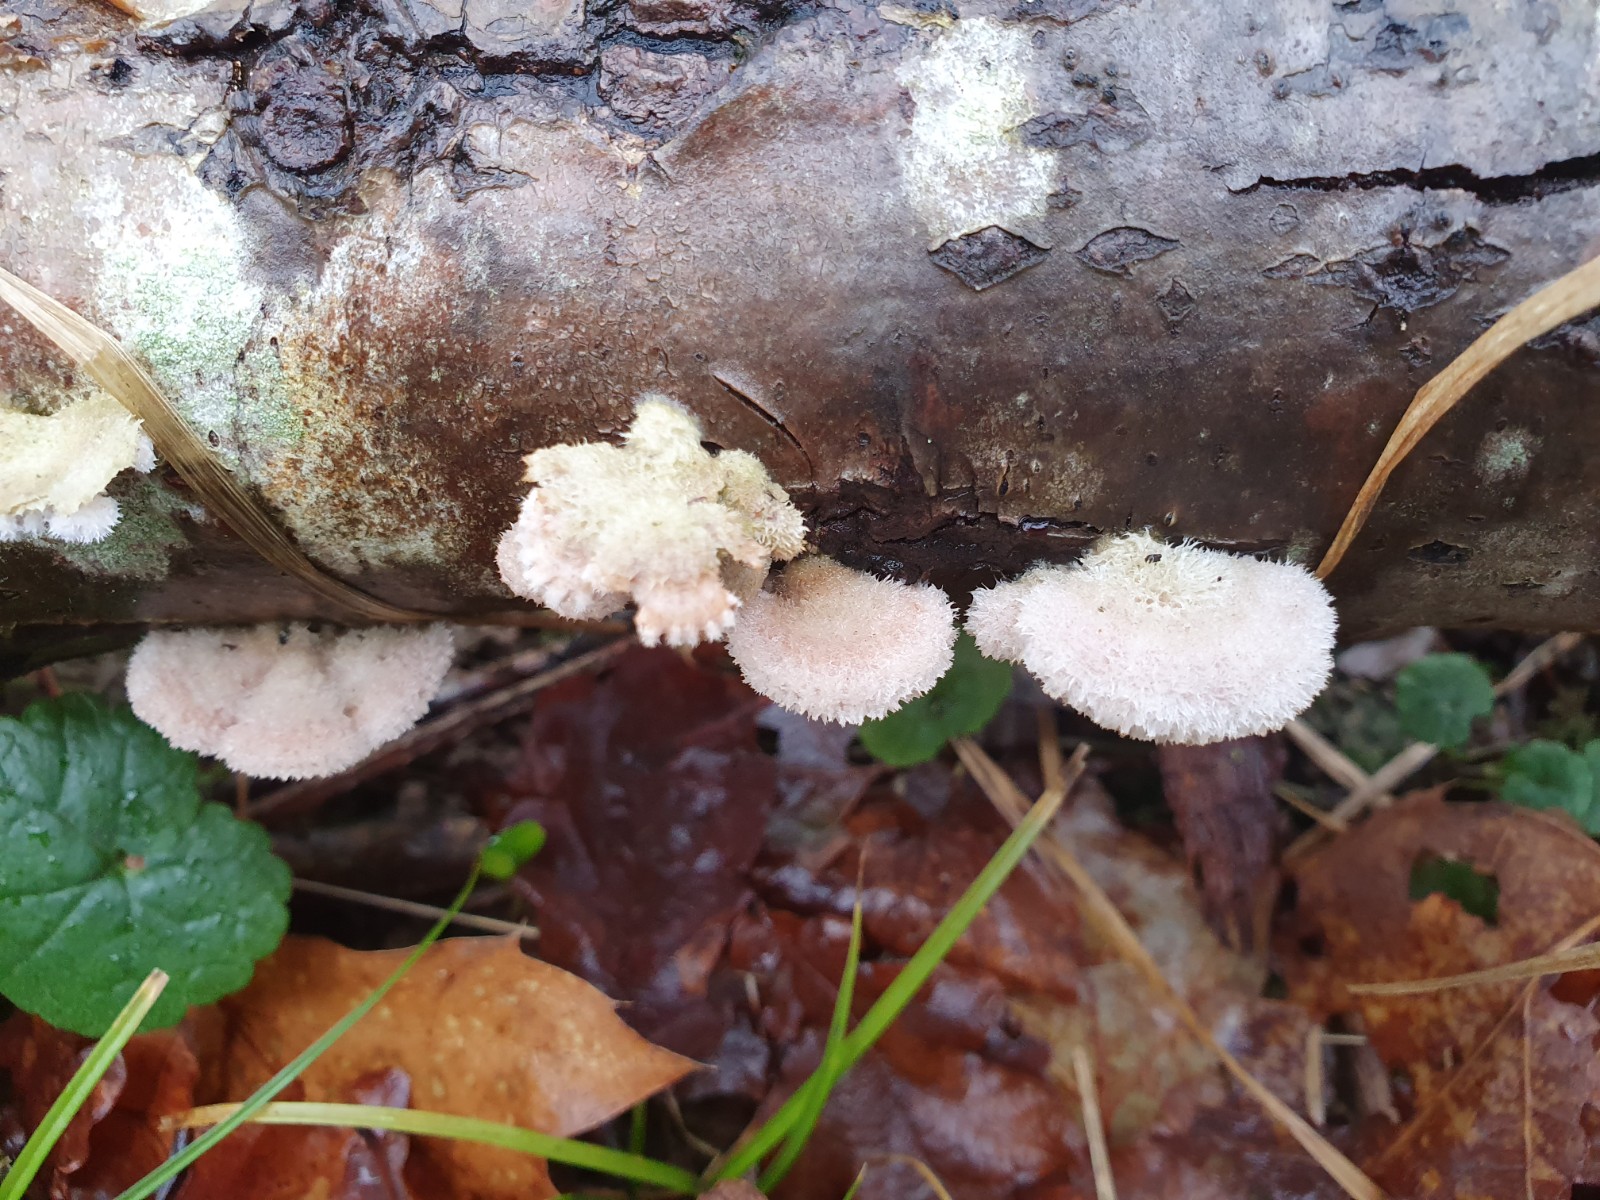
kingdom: Fungi
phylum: Basidiomycota
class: Agaricomycetes
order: Agaricales
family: Schizophyllaceae
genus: Schizophyllum
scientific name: Schizophyllum commune
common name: kløvblad
